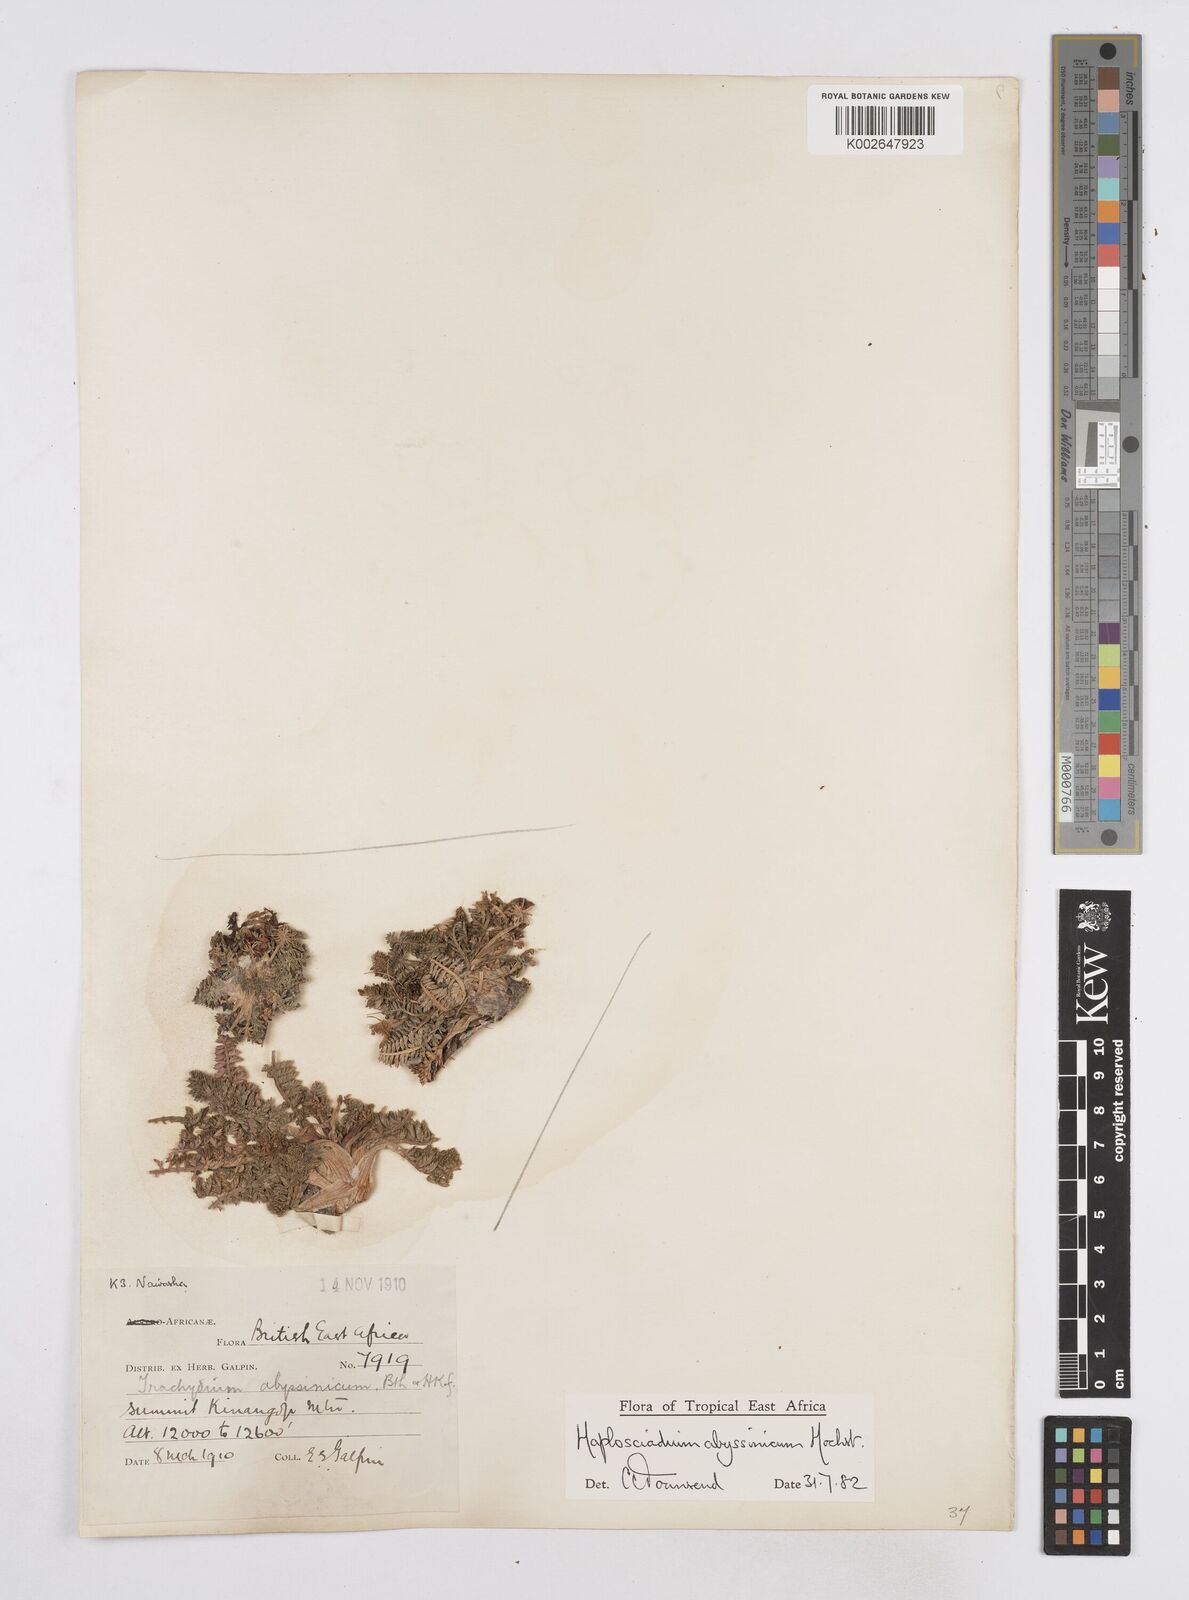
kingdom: Plantae
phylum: Tracheophyta
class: Magnoliopsida
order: Apiales
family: Apiaceae
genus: Haplosciadium
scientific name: Haplosciadium abyssinicum
